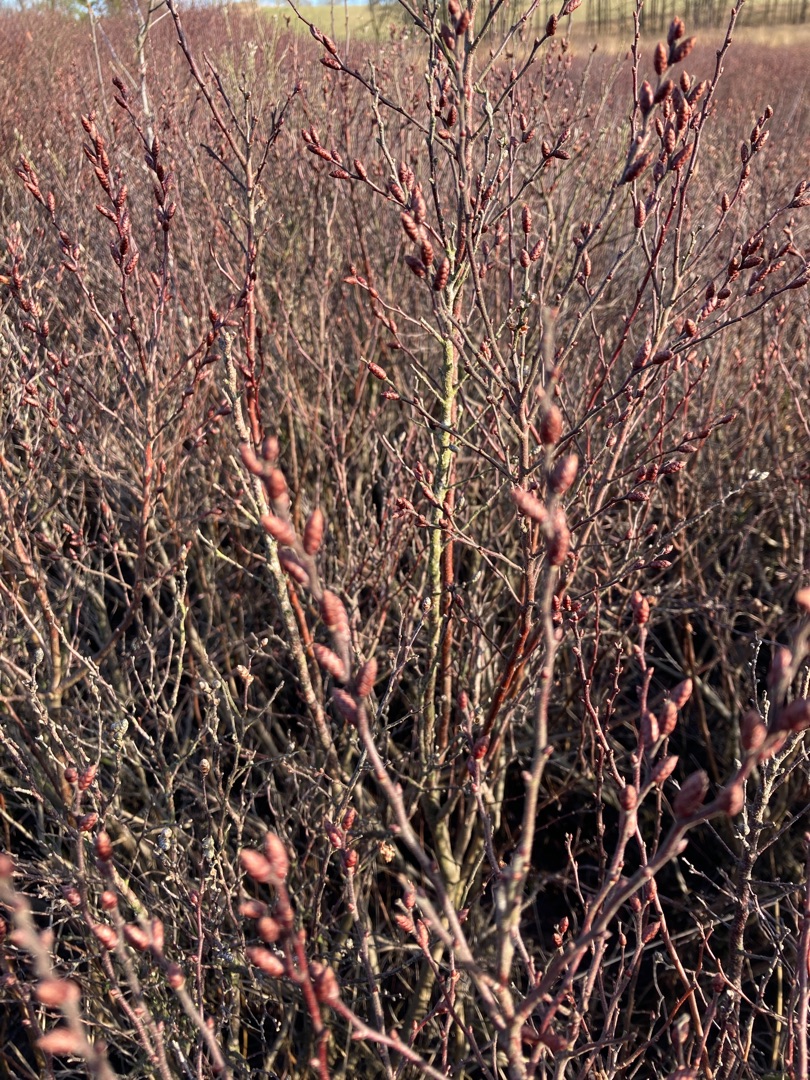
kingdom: Plantae
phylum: Tracheophyta
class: Magnoliopsida
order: Fagales
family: Myricaceae
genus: Myrica
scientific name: Myrica gale
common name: Pors
